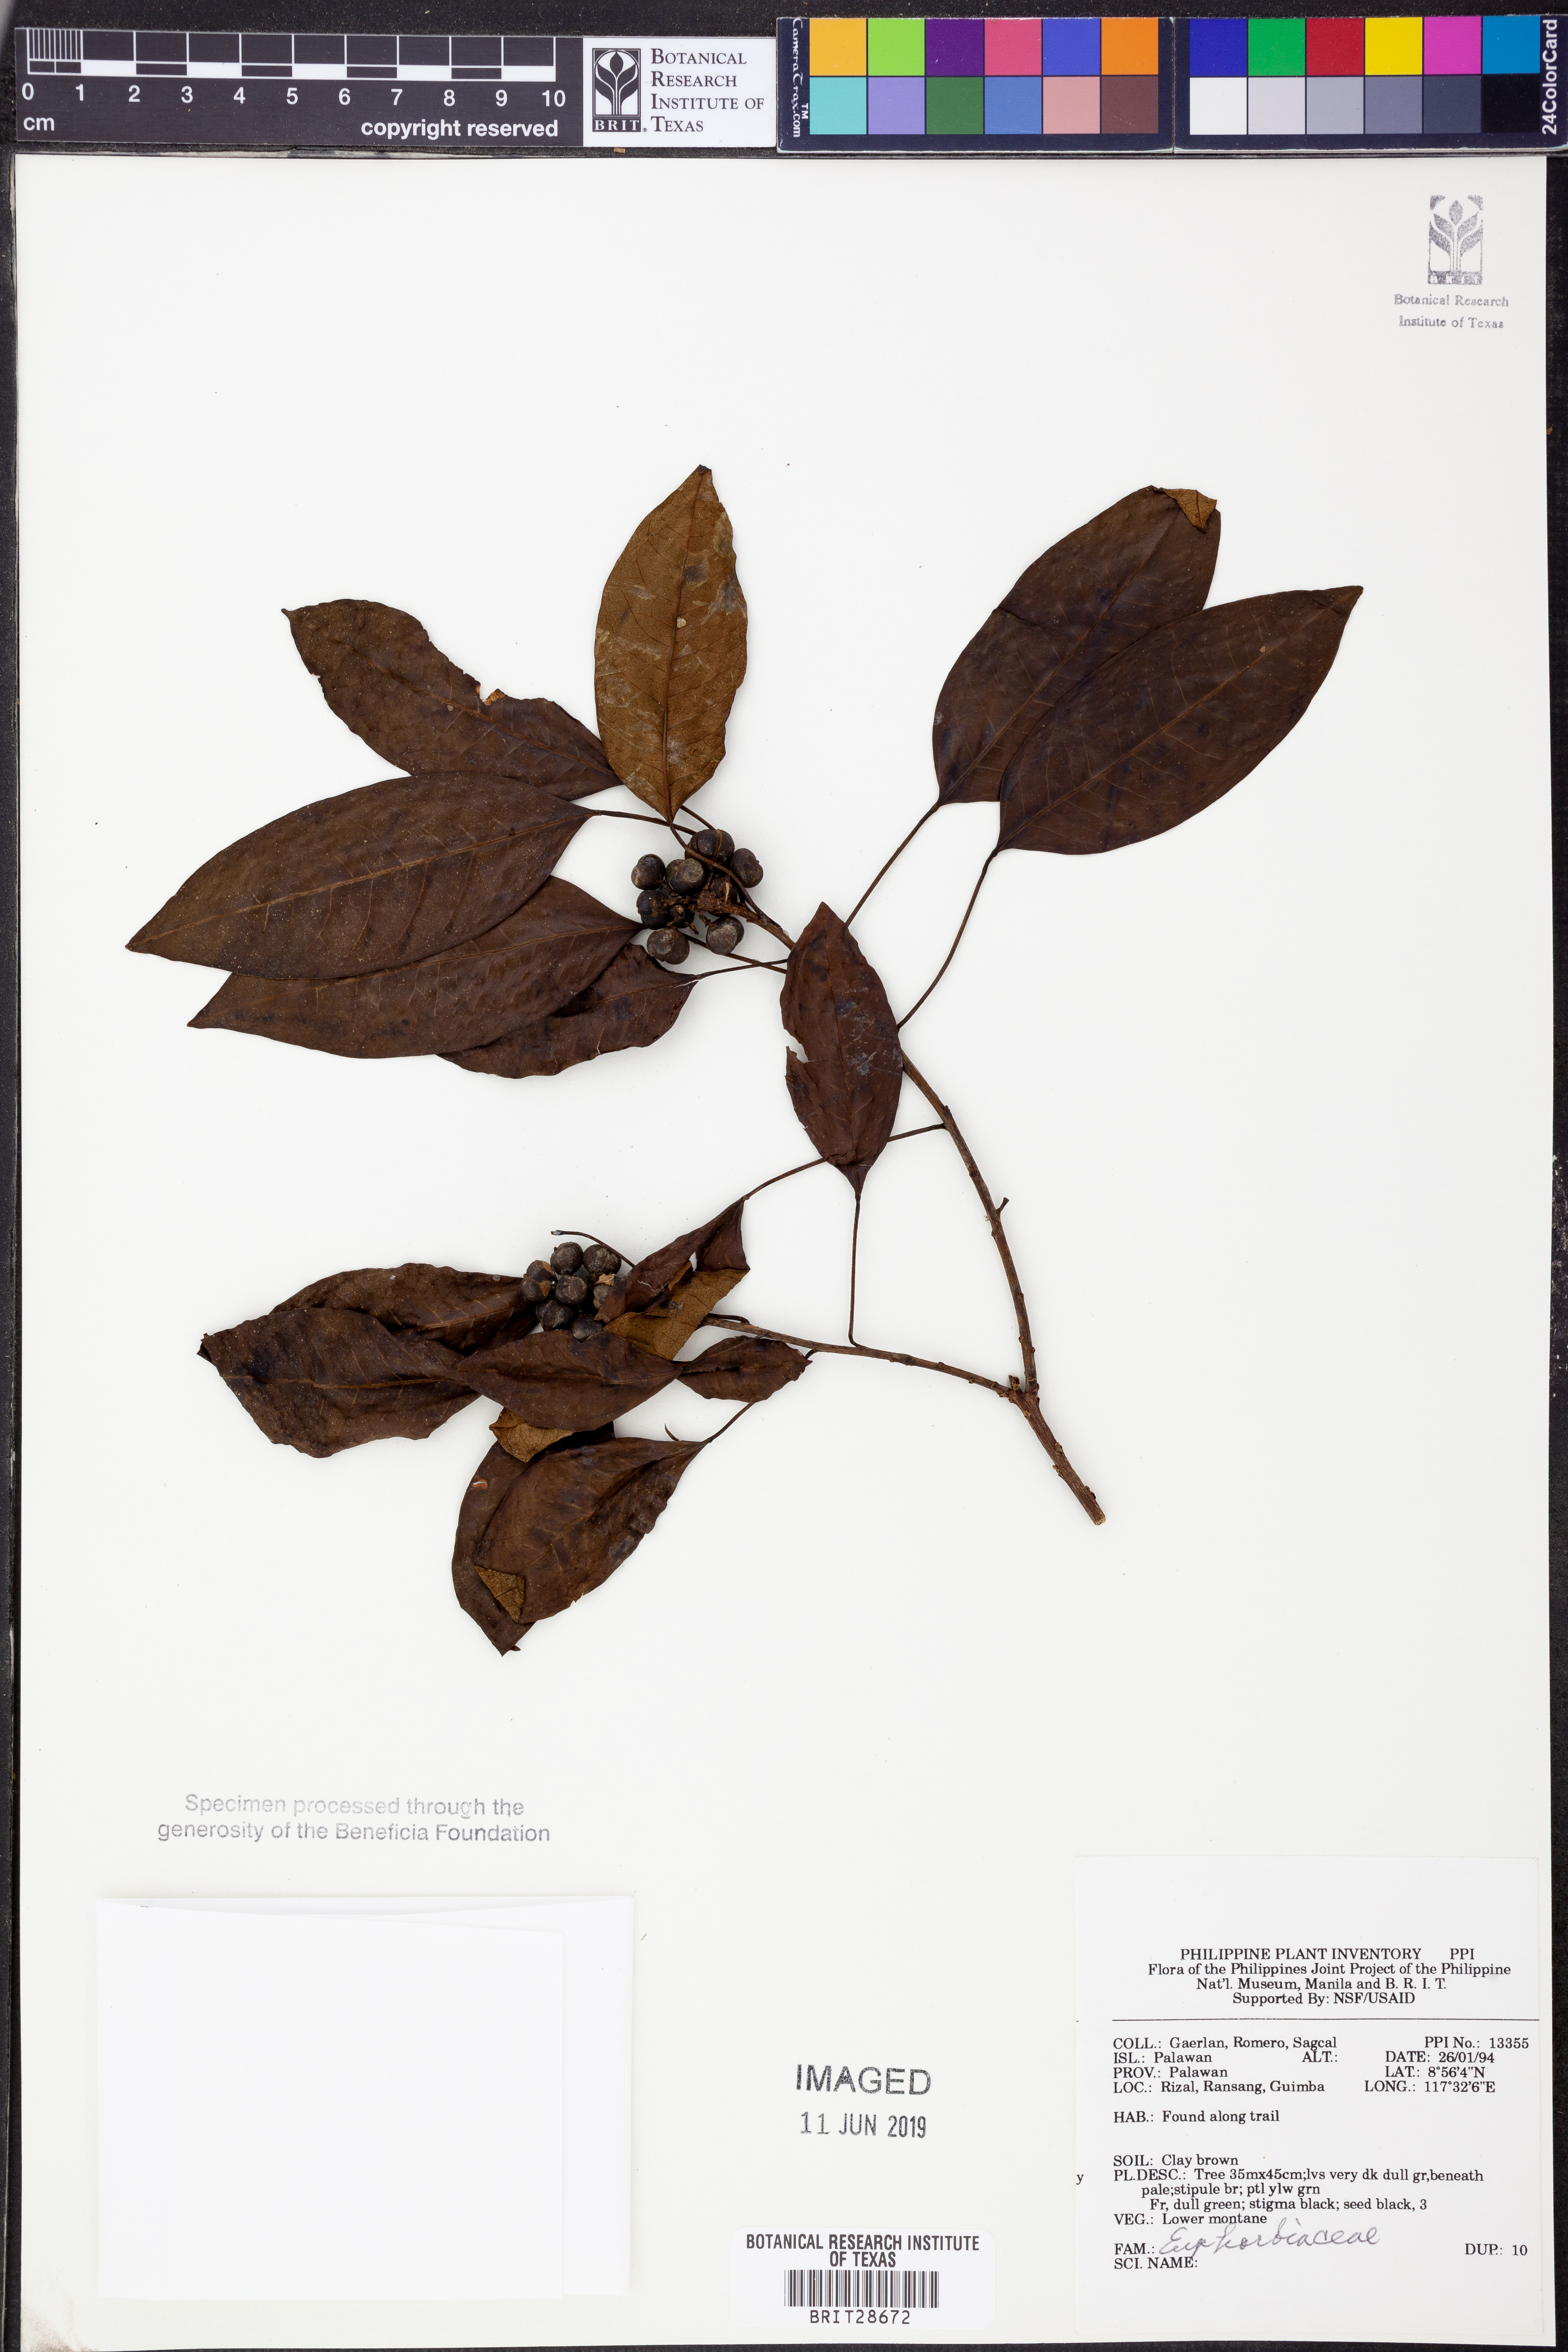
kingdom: Plantae
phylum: Tracheophyta
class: Magnoliopsida
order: Malpighiales
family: Euphorbiaceae
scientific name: Euphorbiaceae
